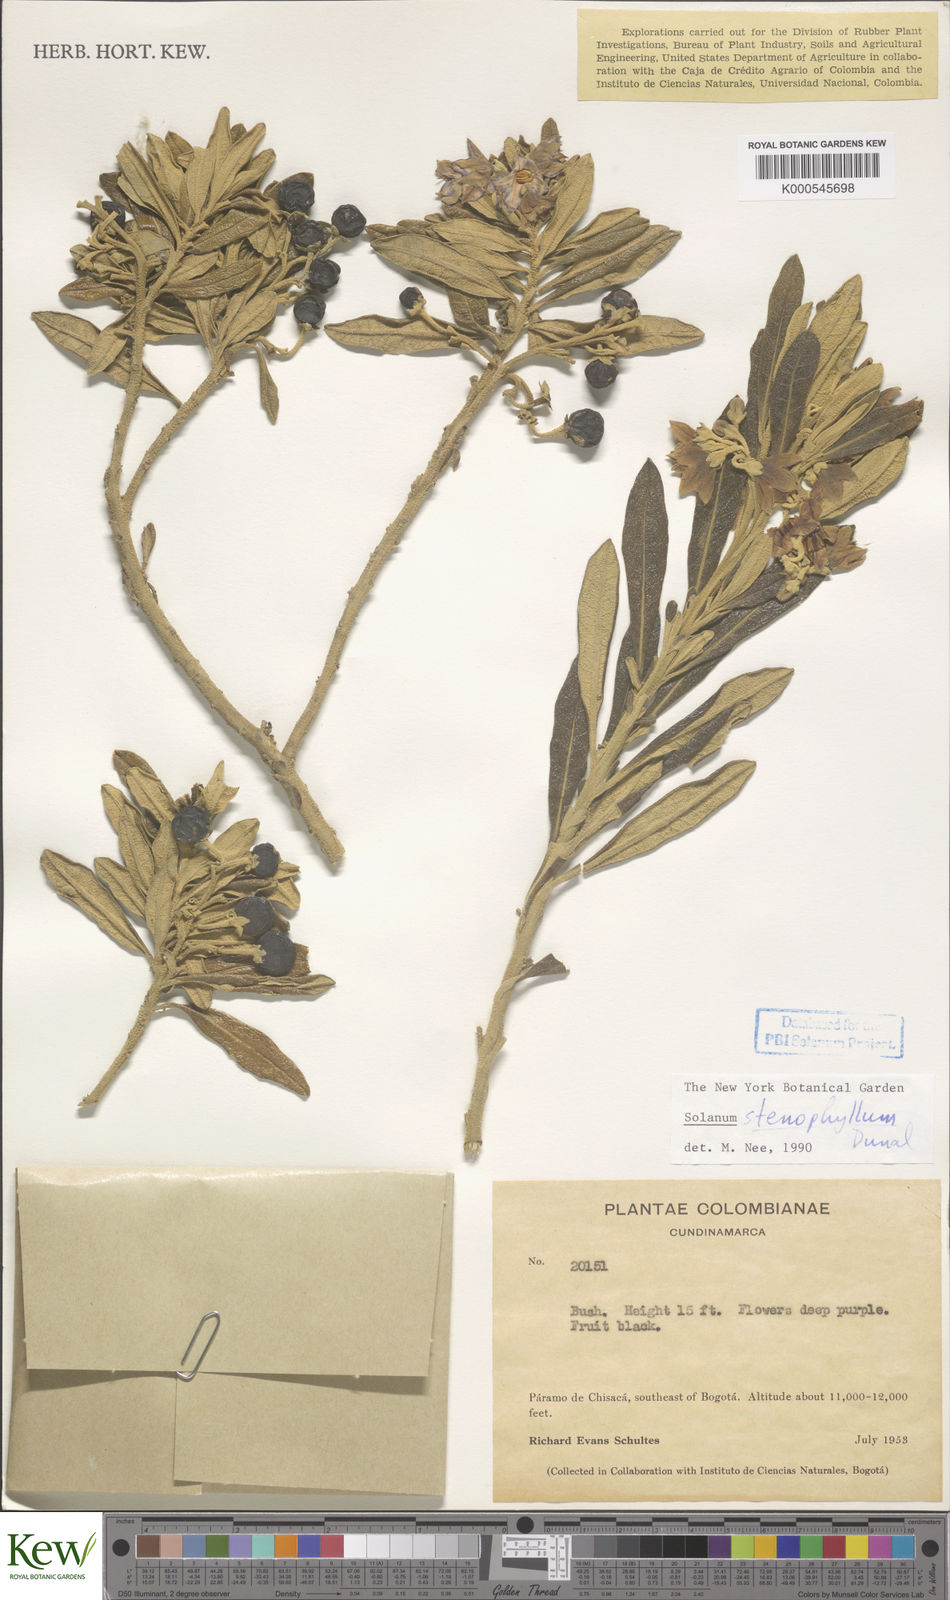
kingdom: Plantae
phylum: Tracheophyta
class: Magnoliopsida
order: Solanales
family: Solanaceae
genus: Solanum
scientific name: Solanum stenophyllum
